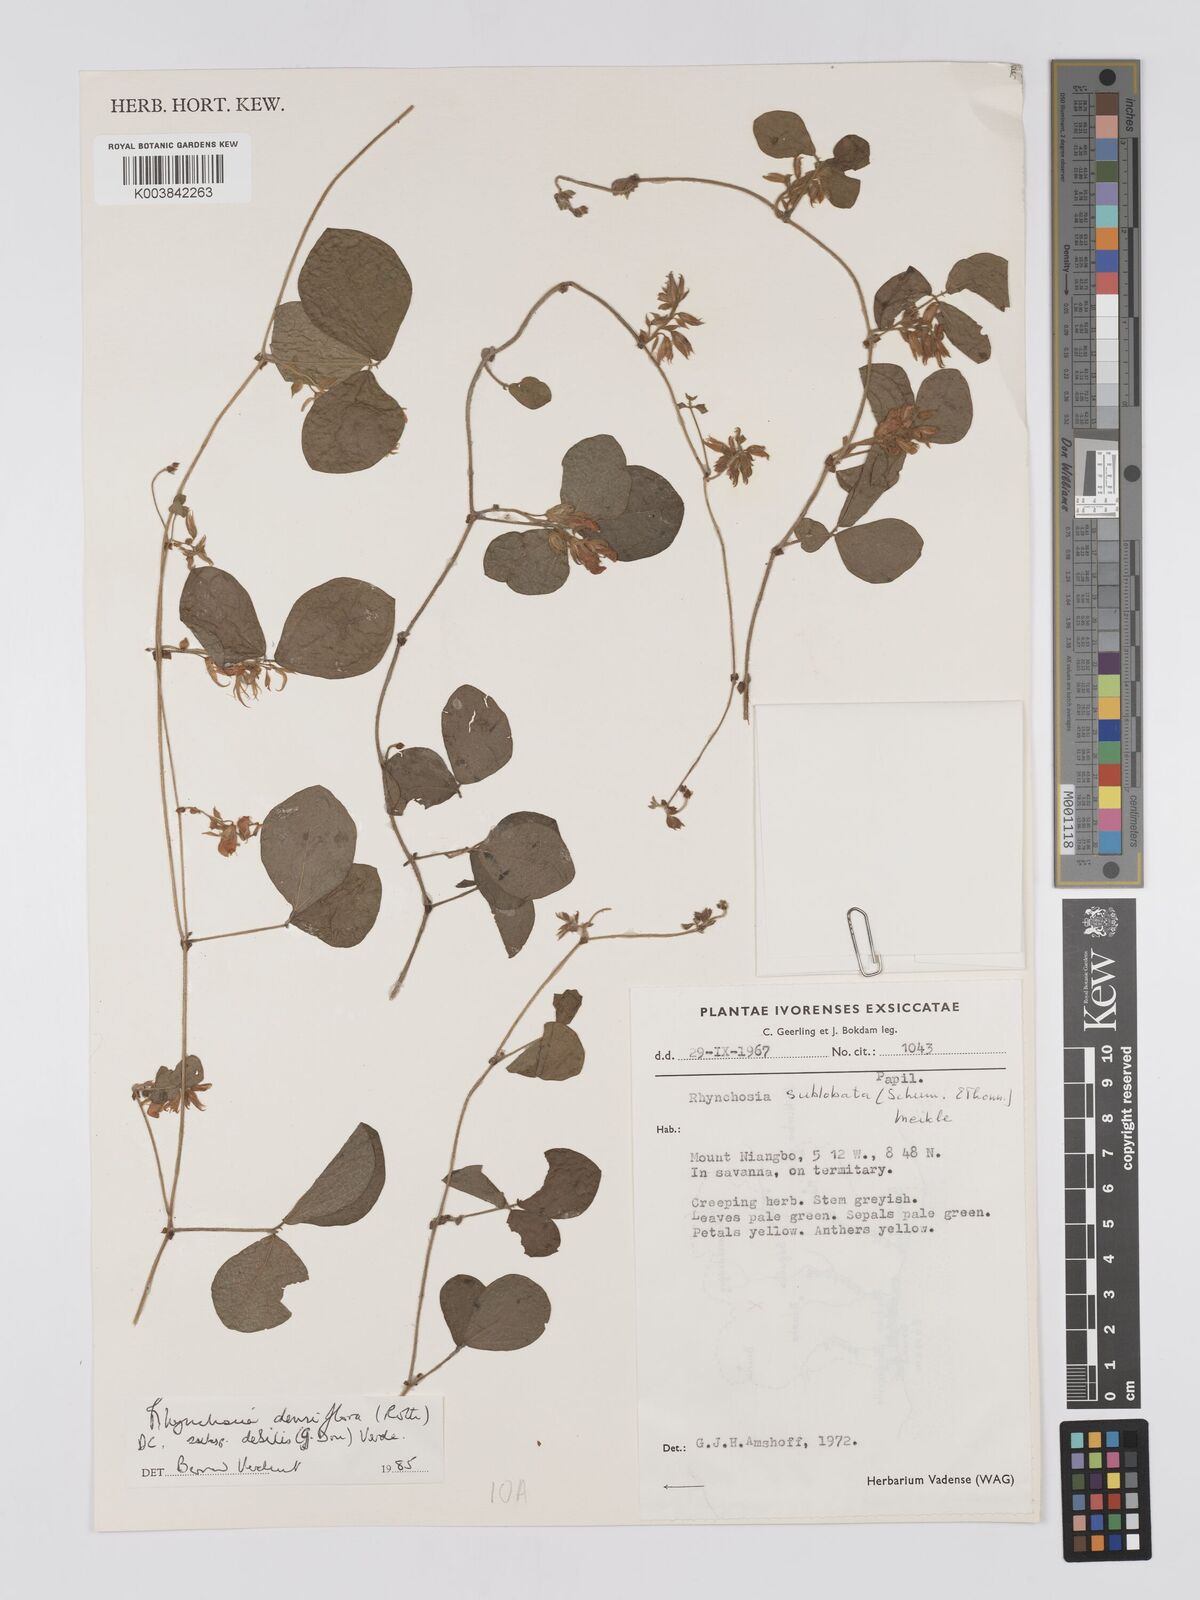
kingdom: Plantae
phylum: Tracheophyta
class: Magnoliopsida
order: Fabales
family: Fabaceae
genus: Rhynchosia
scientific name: Rhynchosia sublobata
